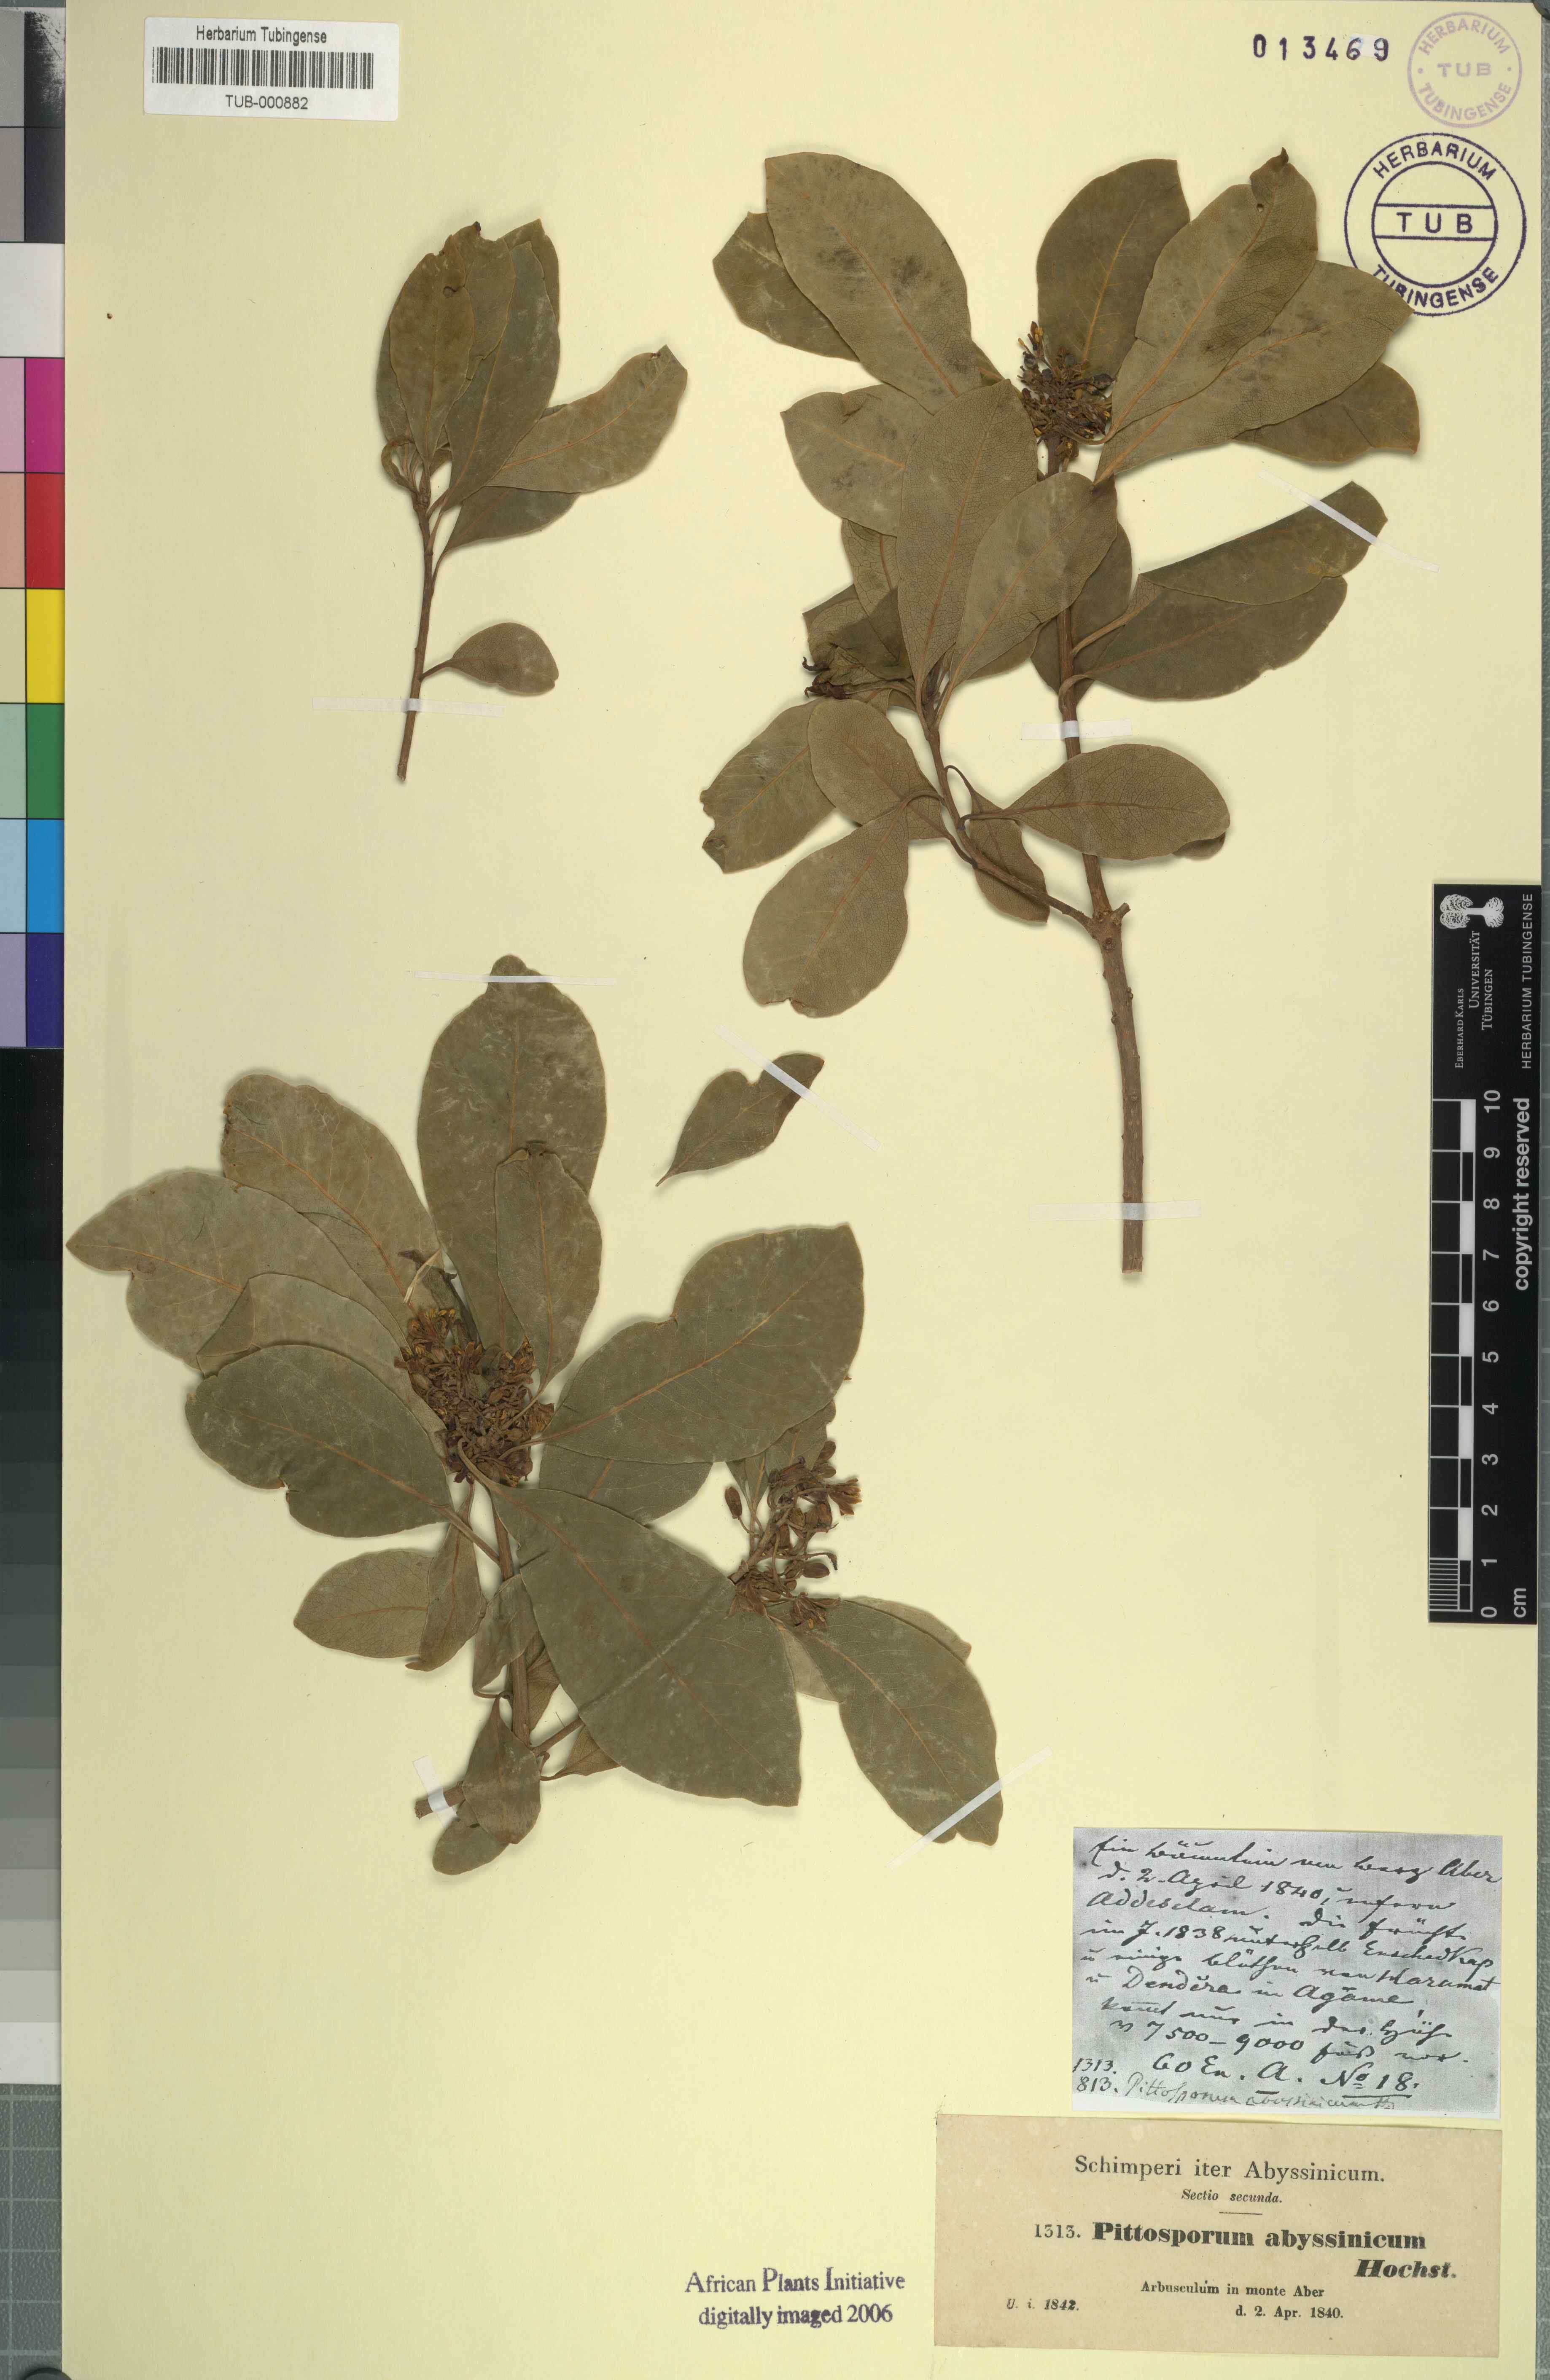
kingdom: Plantae
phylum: Tracheophyta
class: Magnoliopsida
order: Apiales
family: Pittosporaceae
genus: Pittosporum
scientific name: Pittosporum abyssinicum
